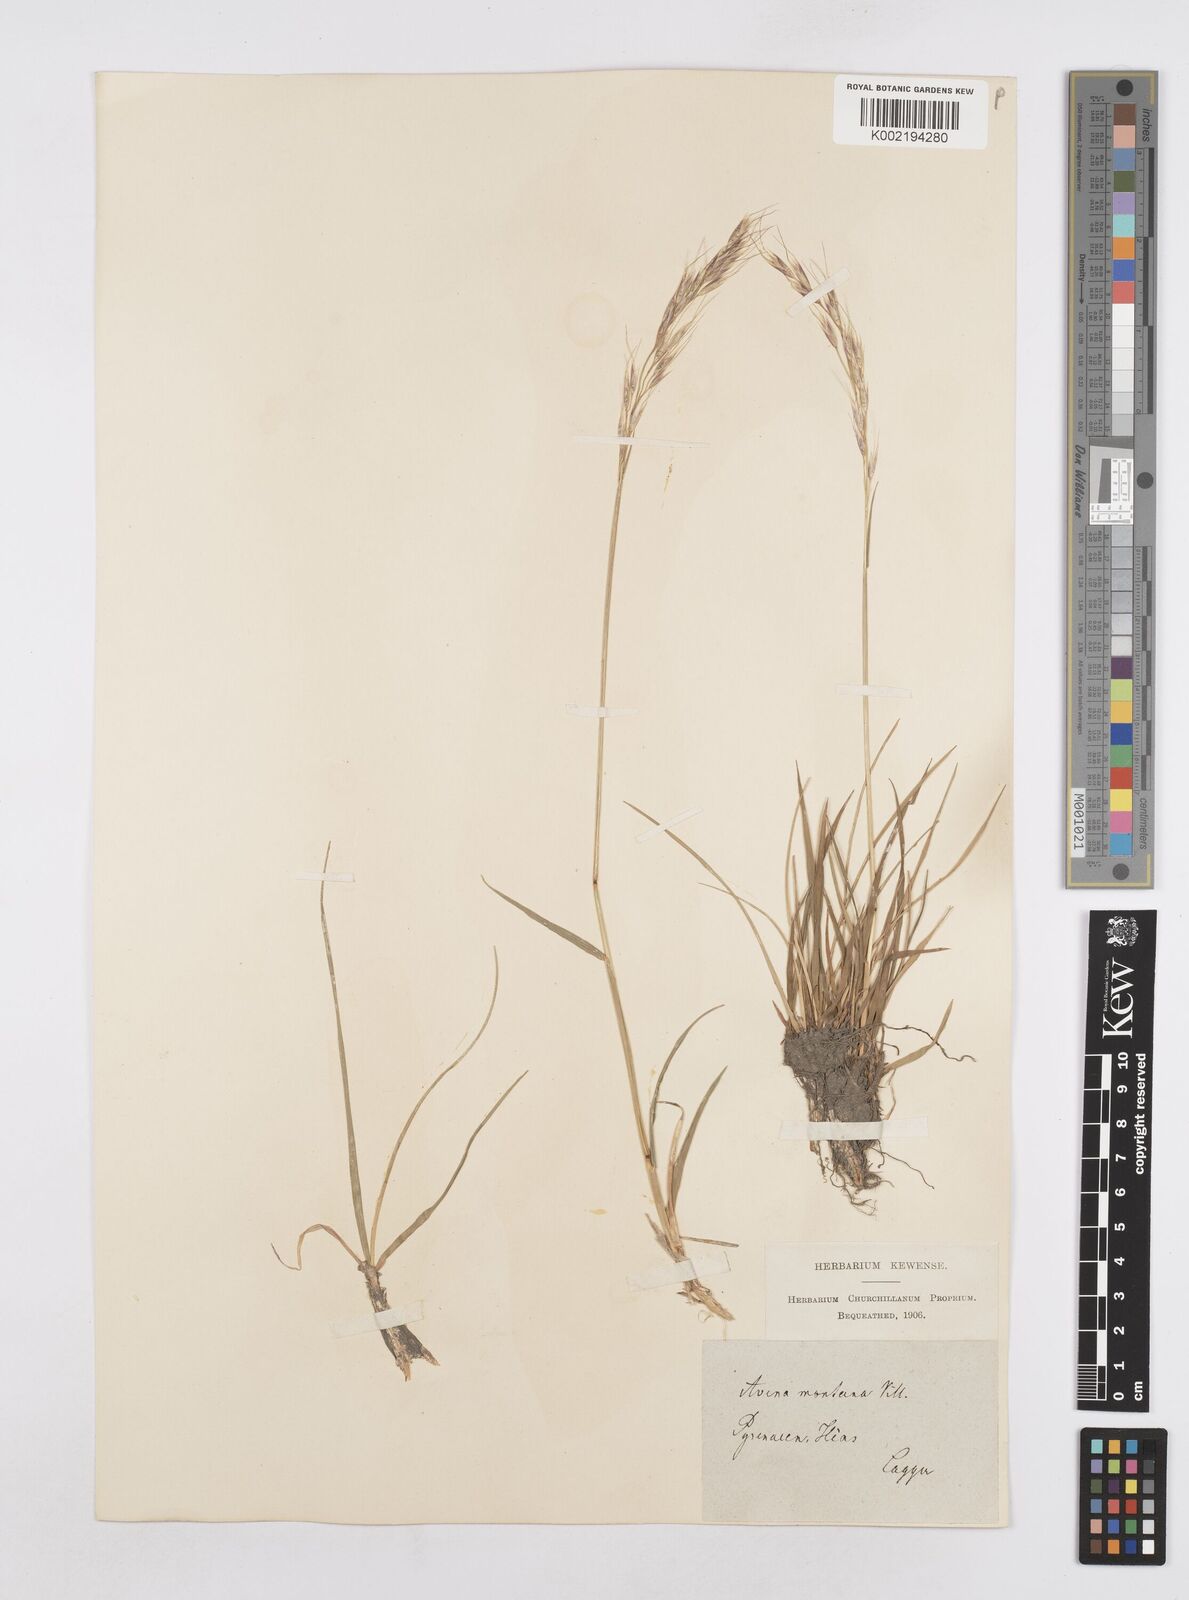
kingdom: Plantae
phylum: Tracheophyta
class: Liliopsida
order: Poales
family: Poaceae
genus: Helictotrichon
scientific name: Helictotrichon sedenense
